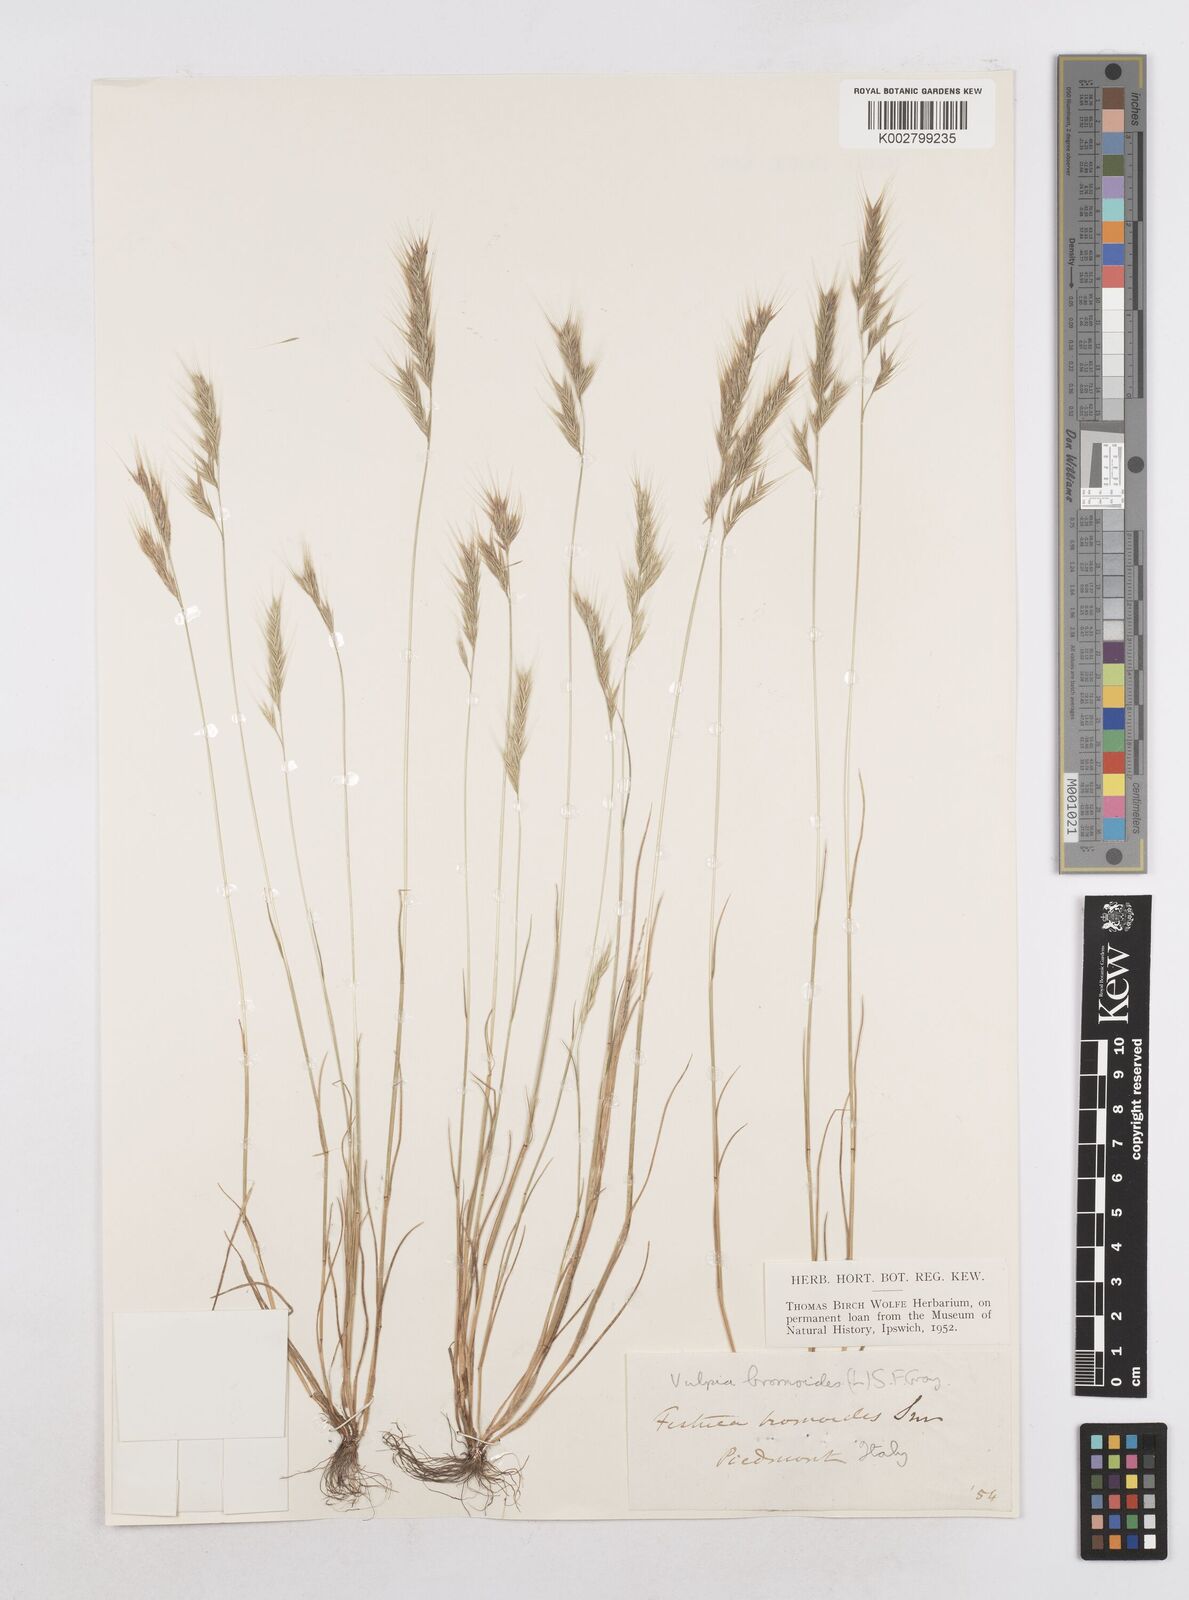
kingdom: Plantae
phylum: Tracheophyta
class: Liliopsida
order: Poales
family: Poaceae
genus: Festuca
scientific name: Festuca bromoides
